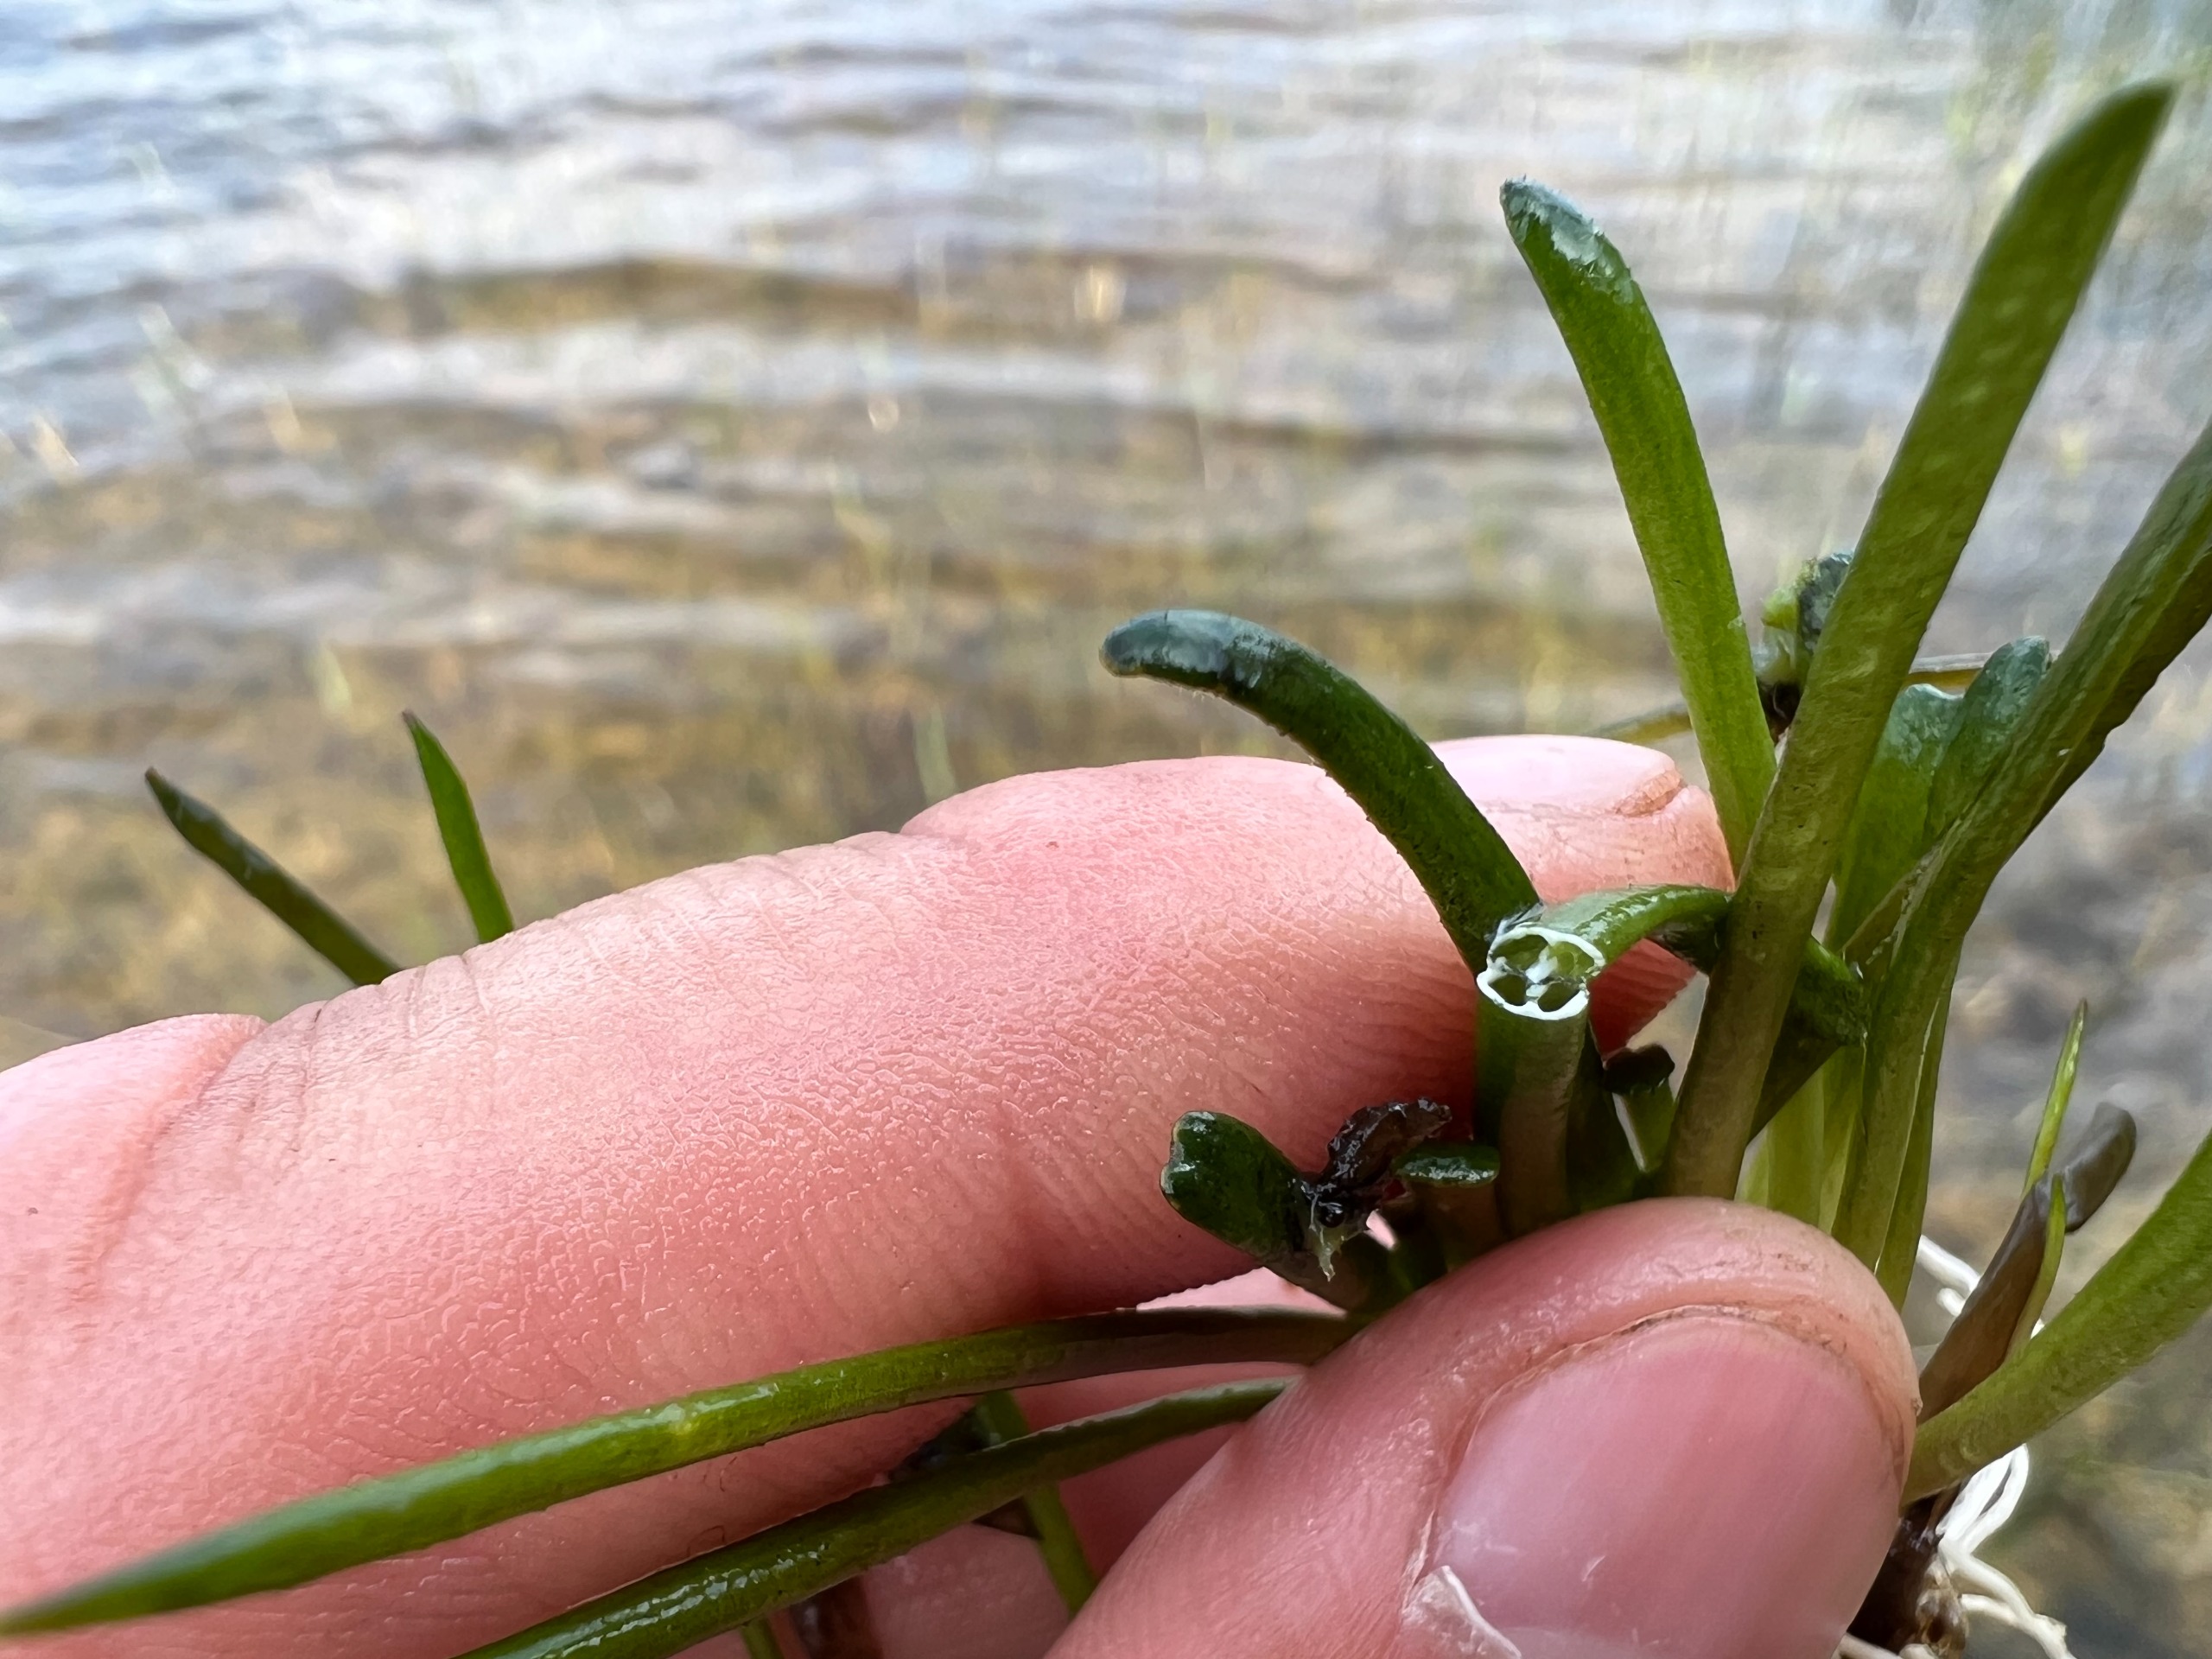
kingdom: Plantae
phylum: Tracheophyta
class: Magnoliopsida
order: Asterales
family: Campanulaceae
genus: Lobelia
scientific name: Lobelia dortmanna
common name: Tvepibet lobelie
